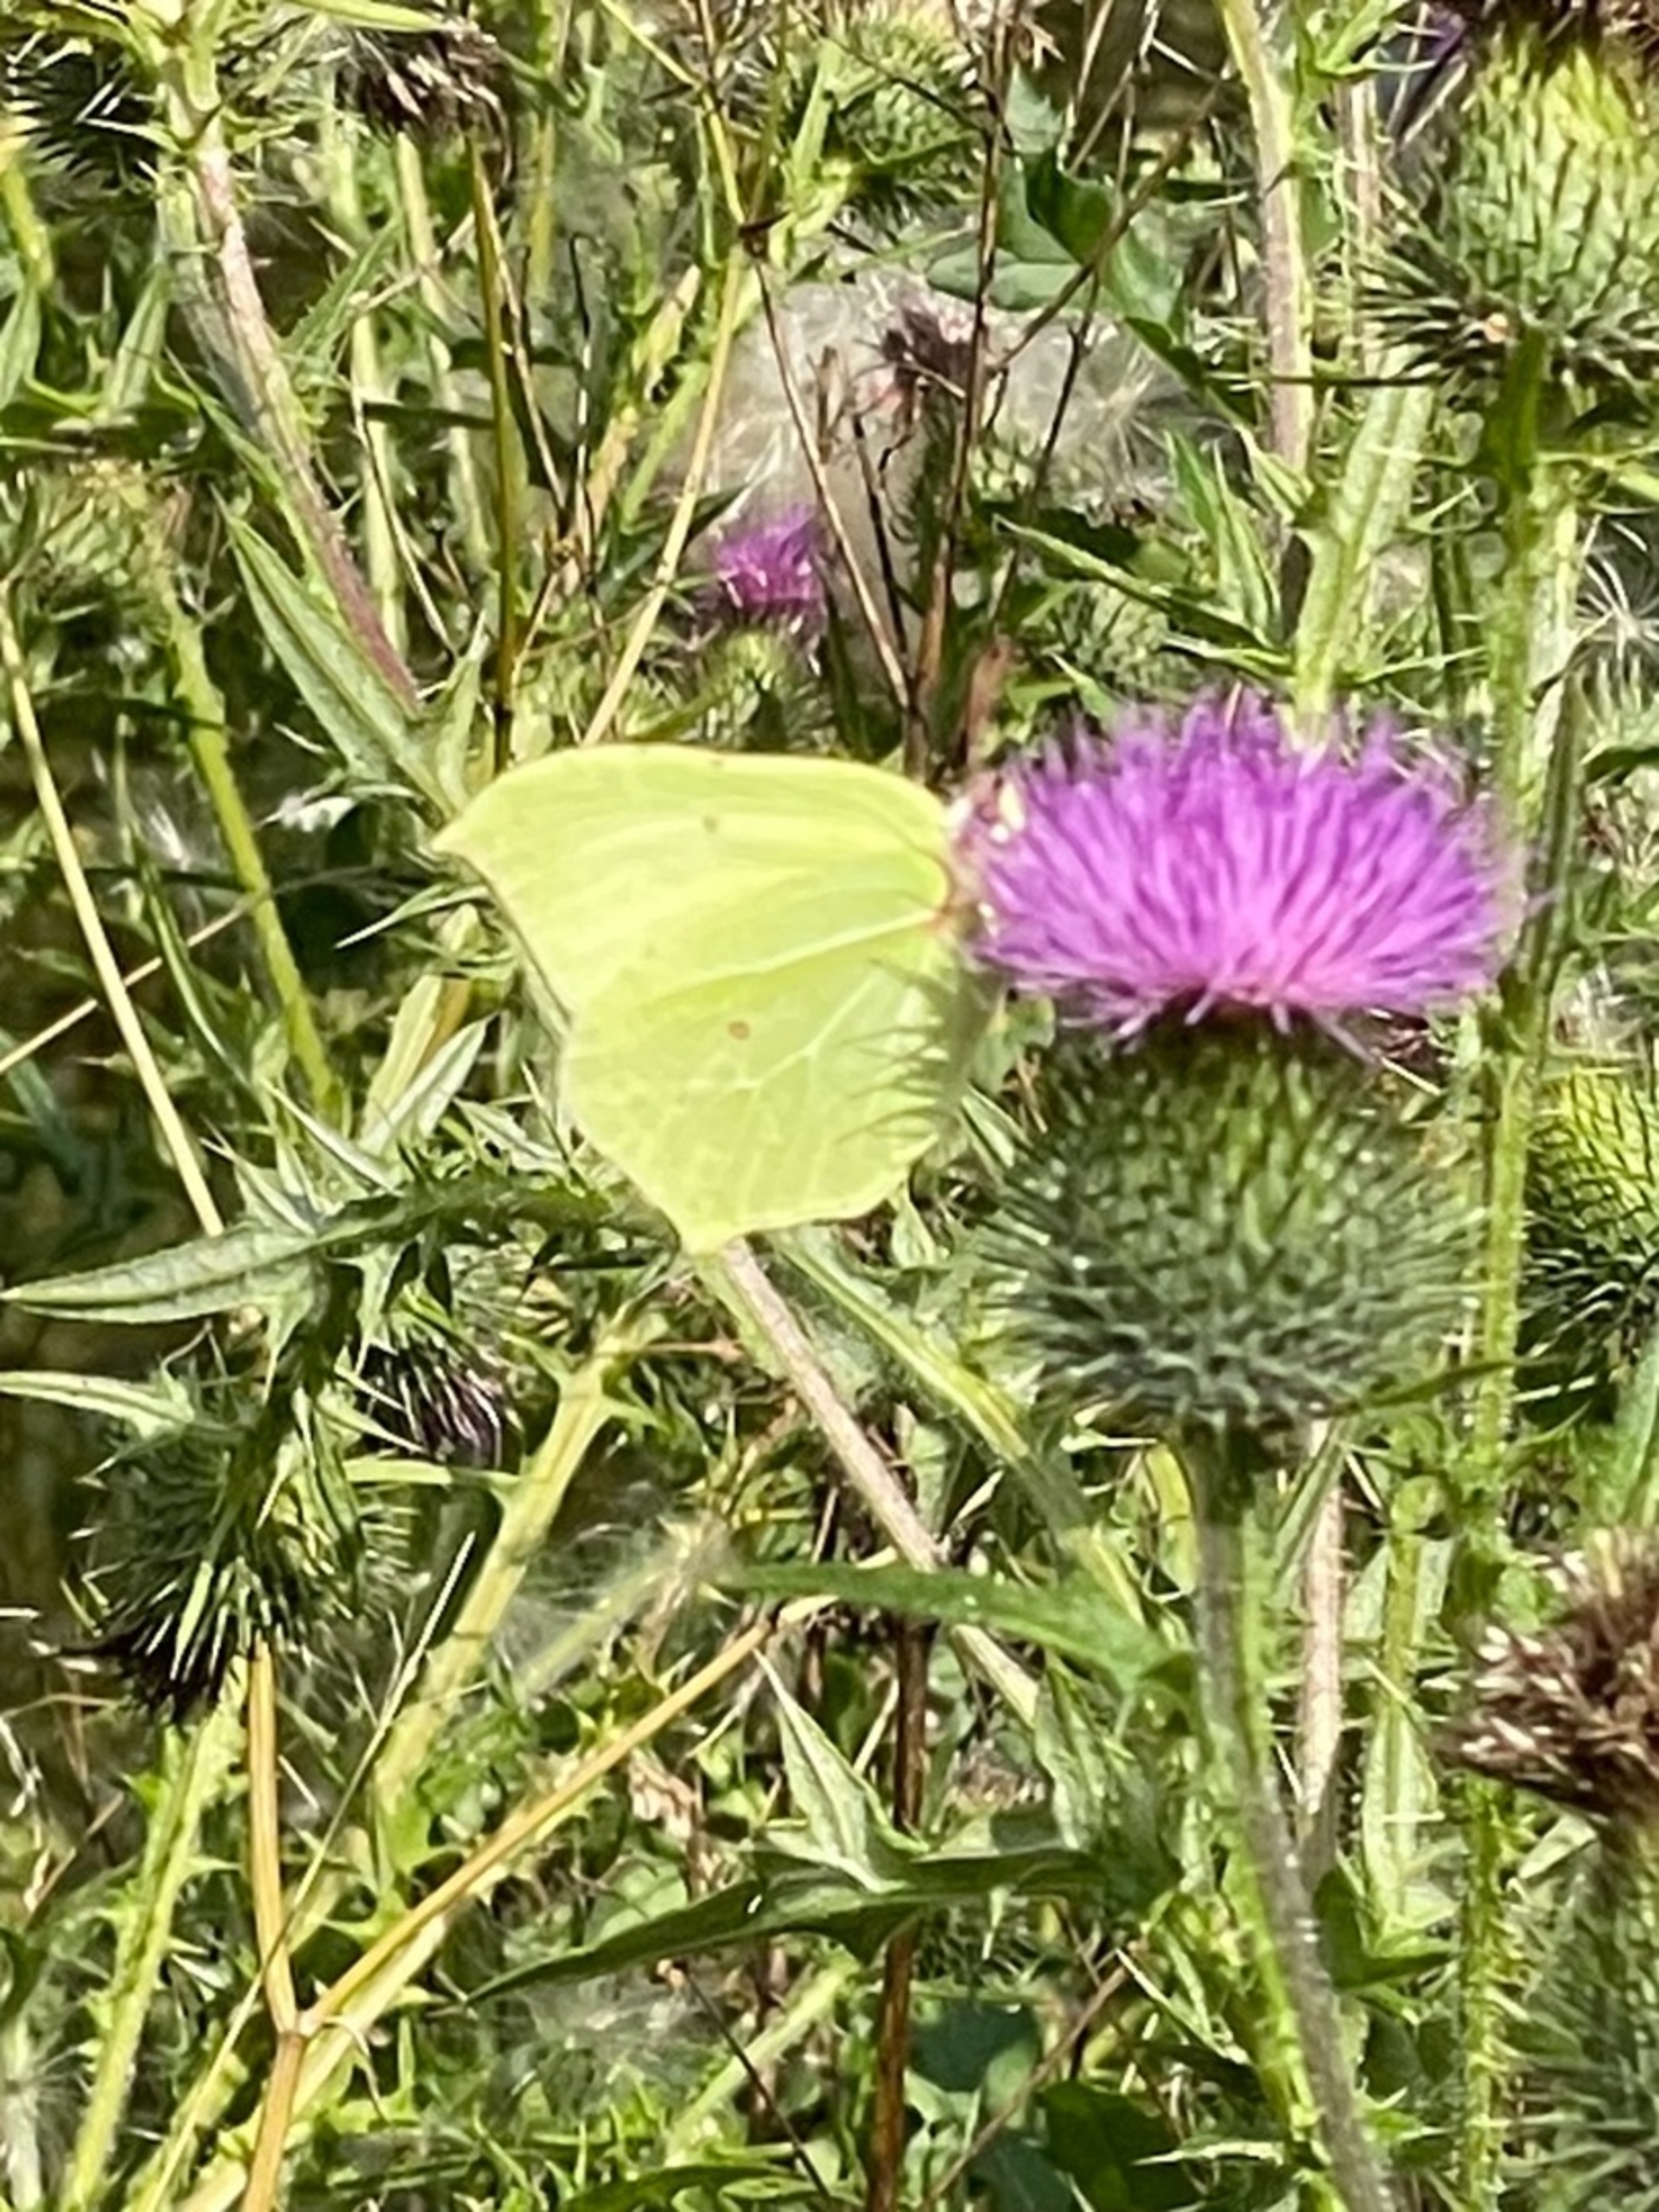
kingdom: Animalia
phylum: Arthropoda
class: Insecta
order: Lepidoptera
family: Pieridae
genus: Gonepteryx
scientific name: Gonepteryx rhamni
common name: Citronsommerfugl
